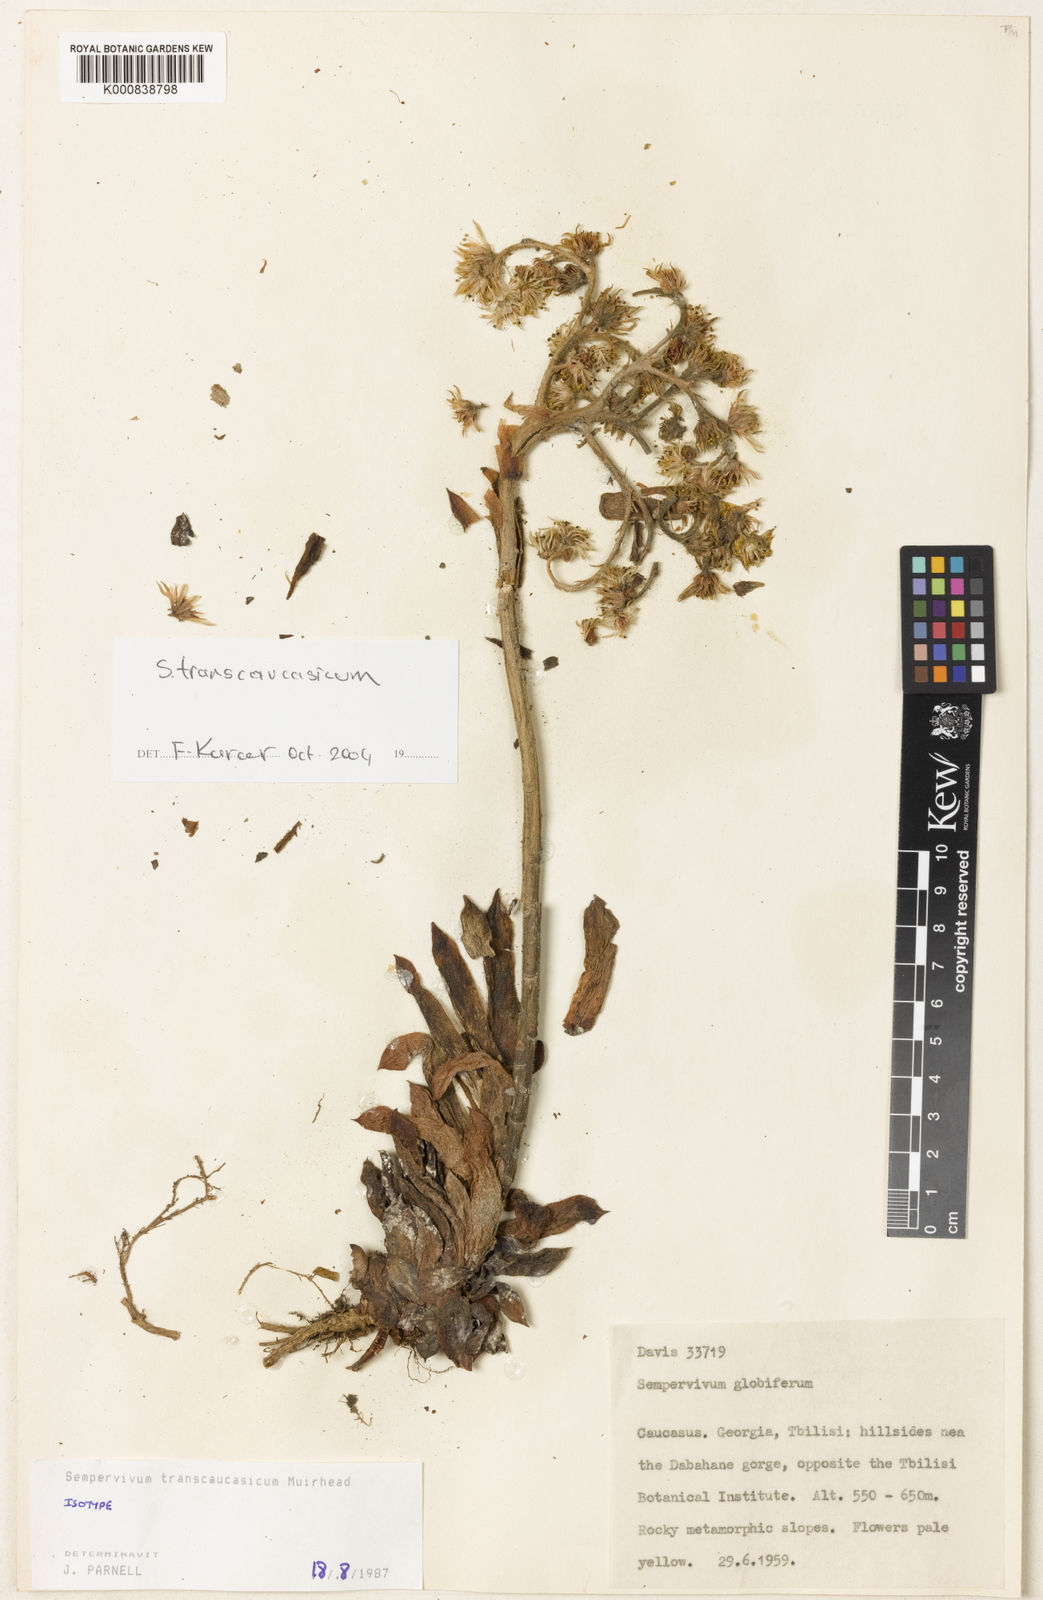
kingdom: Plantae
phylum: Tracheophyta
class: Magnoliopsida
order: Saxifragales
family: Crassulaceae
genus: Sempervivum
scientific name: Sempervivum transcaucasicum
